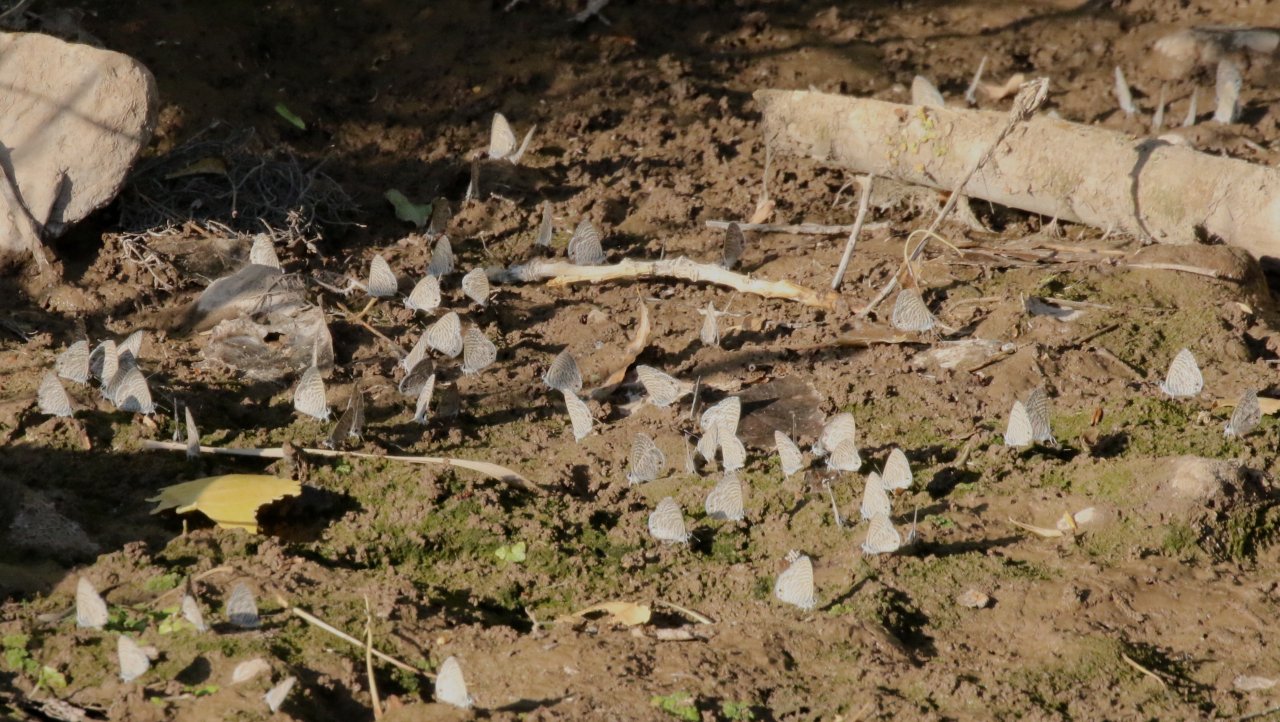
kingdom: Animalia
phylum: Arthropoda
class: Insecta
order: Lepidoptera
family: Lycaenidae
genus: Leptotes
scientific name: Leptotes marina
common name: Marine Blue
